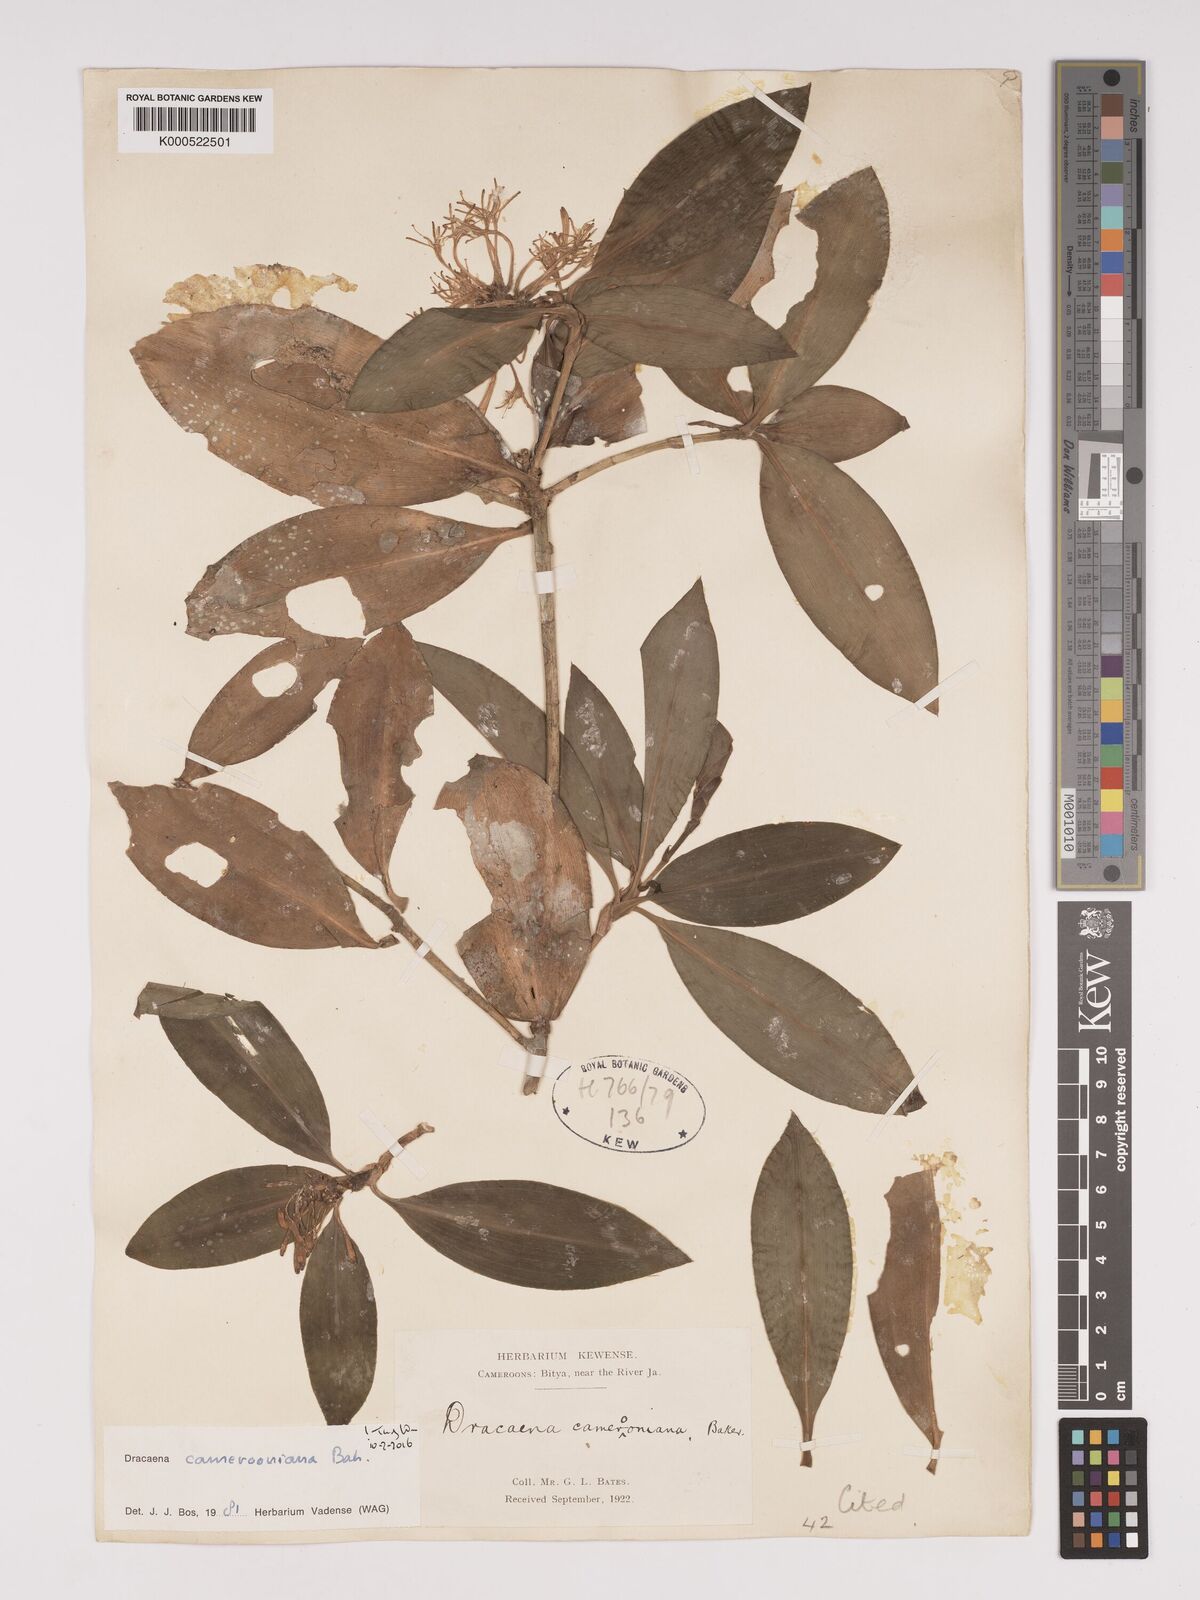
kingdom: Plantae
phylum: Tracheophyta
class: Liliopsida
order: Asparagales
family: Asparagaceae
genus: Dracaena
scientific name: Dracaena camerooniana
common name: Dragon tree
